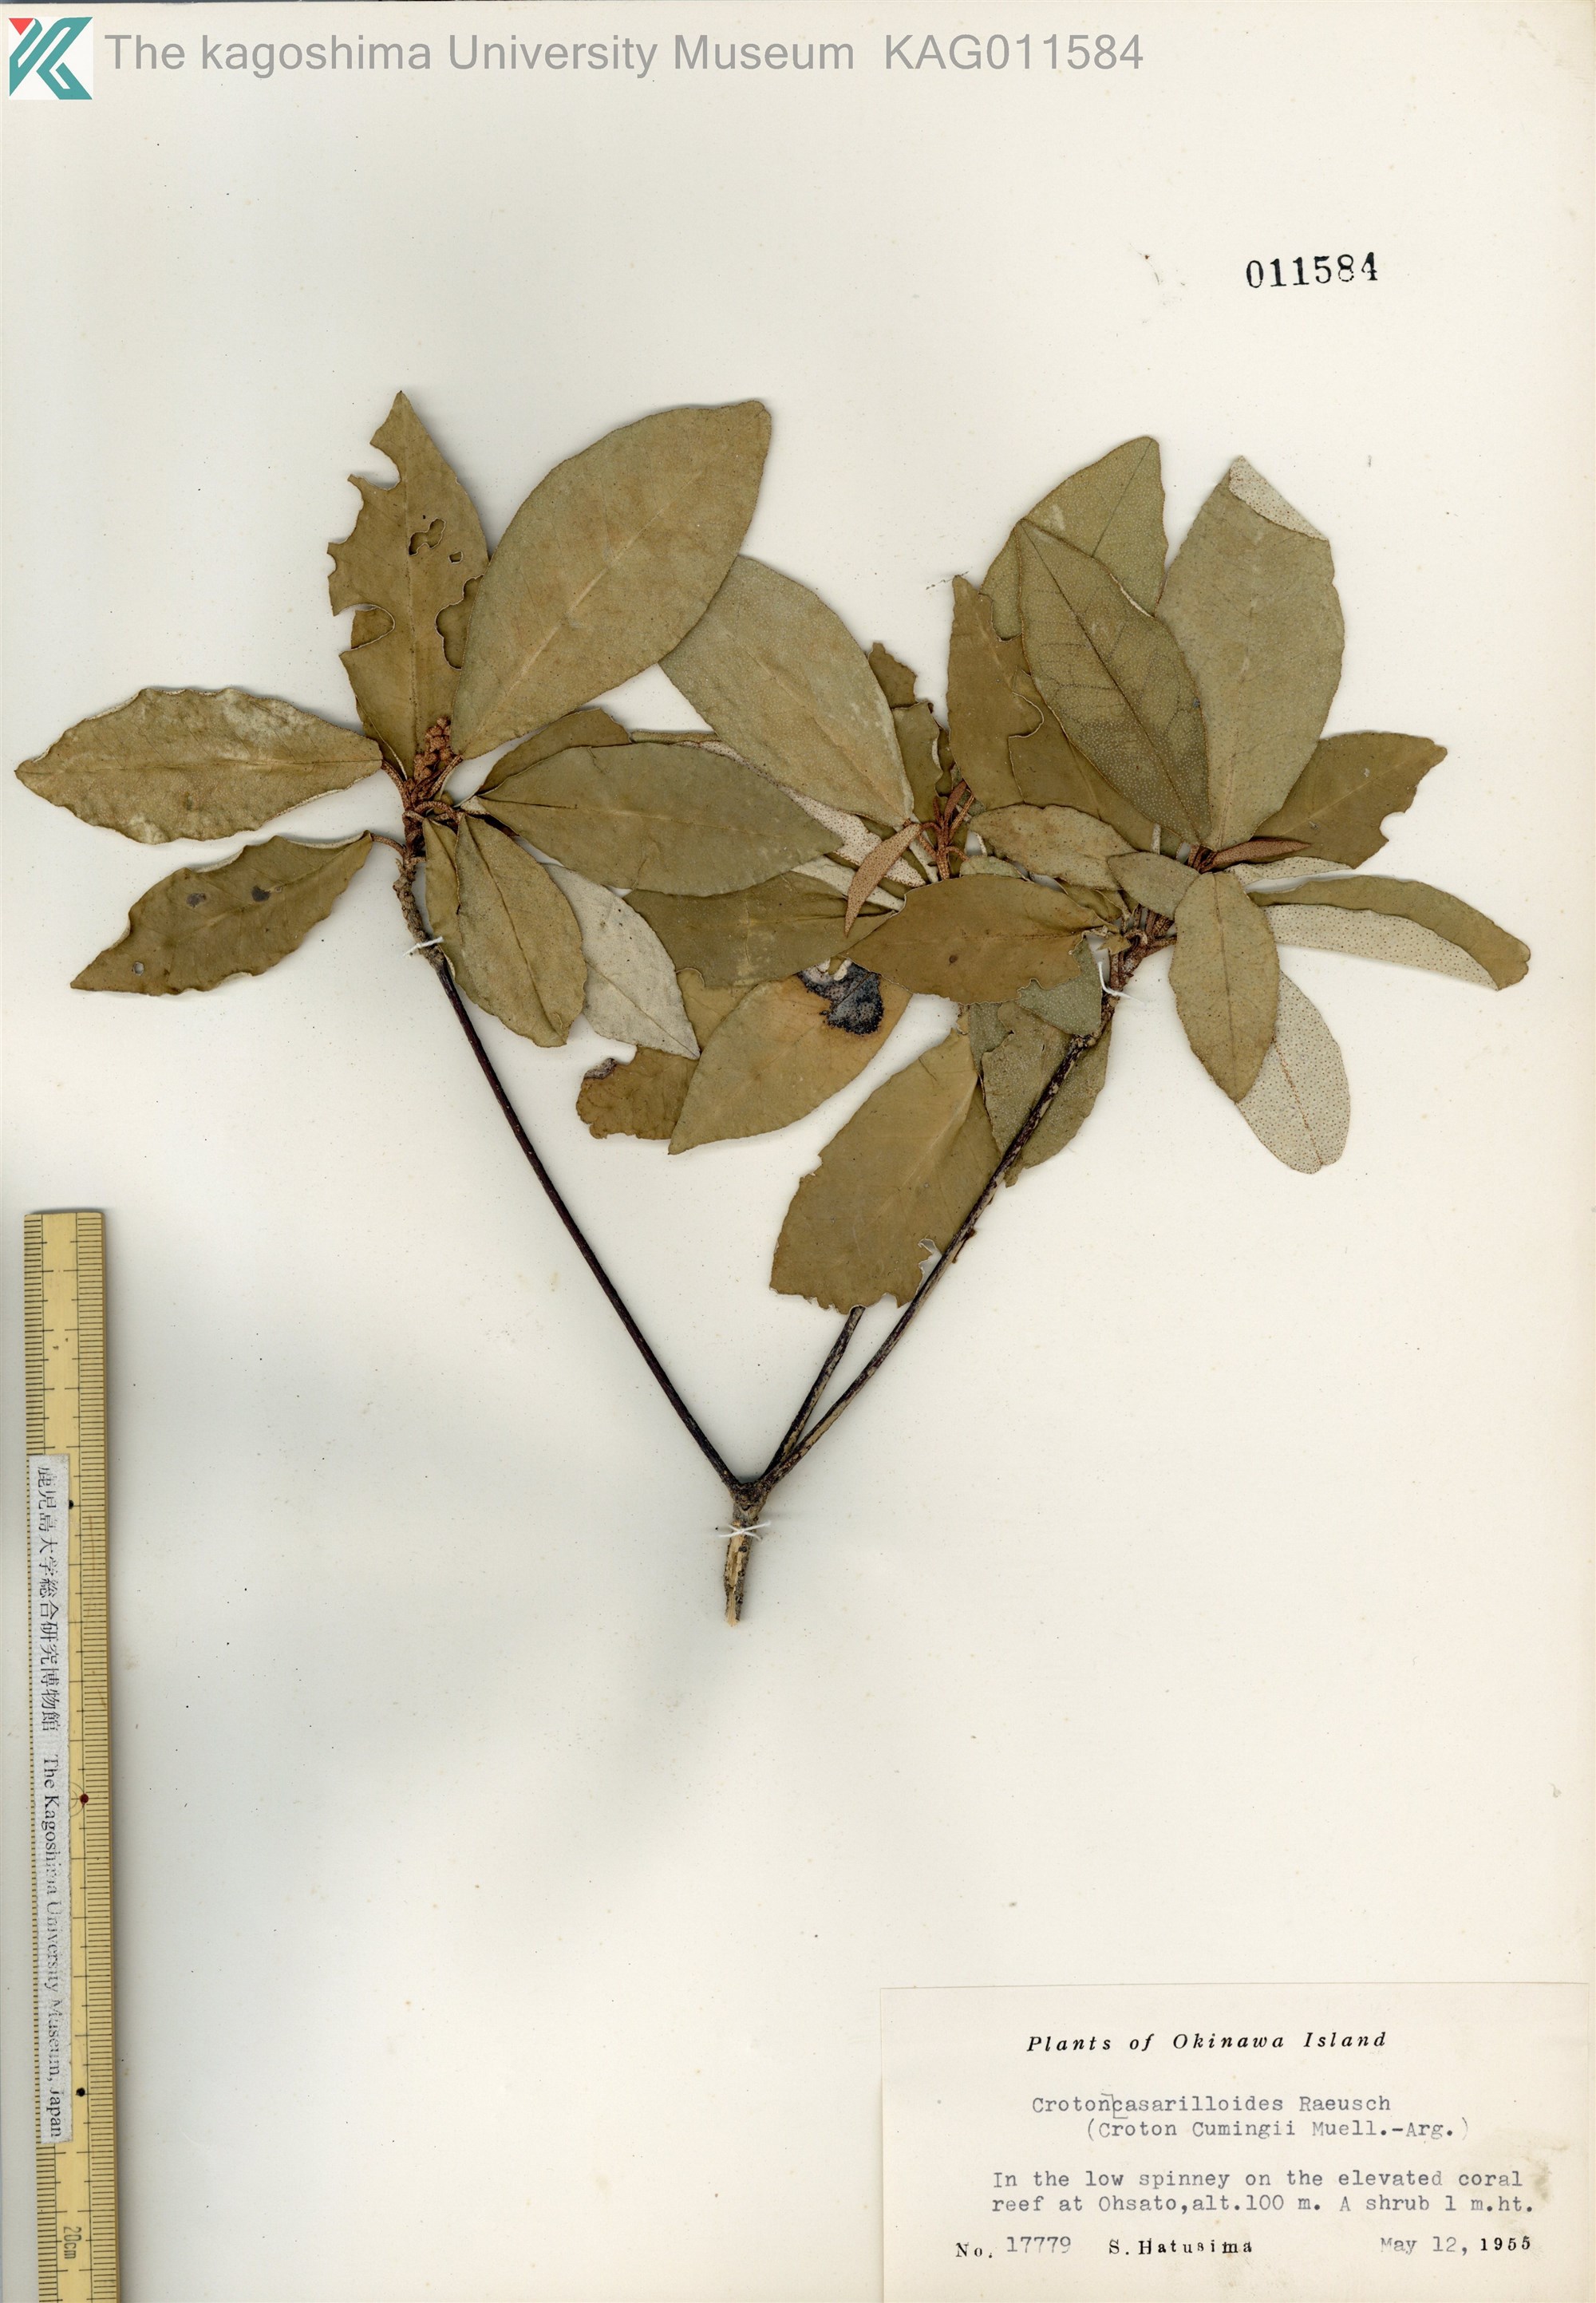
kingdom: Plantae
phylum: Tracheophyta
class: Magnoliopsida
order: Malpighiales
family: Euphorbiaceae
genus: Croton
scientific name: Croton cascarilloides
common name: グミモドキ
